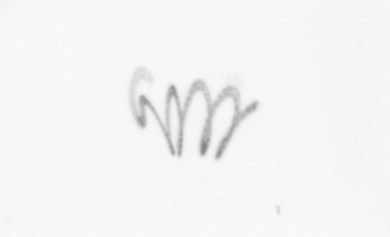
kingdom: Chromista
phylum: Ochrophyta
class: Bacillariophyceae
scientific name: Bacillariophyceae
